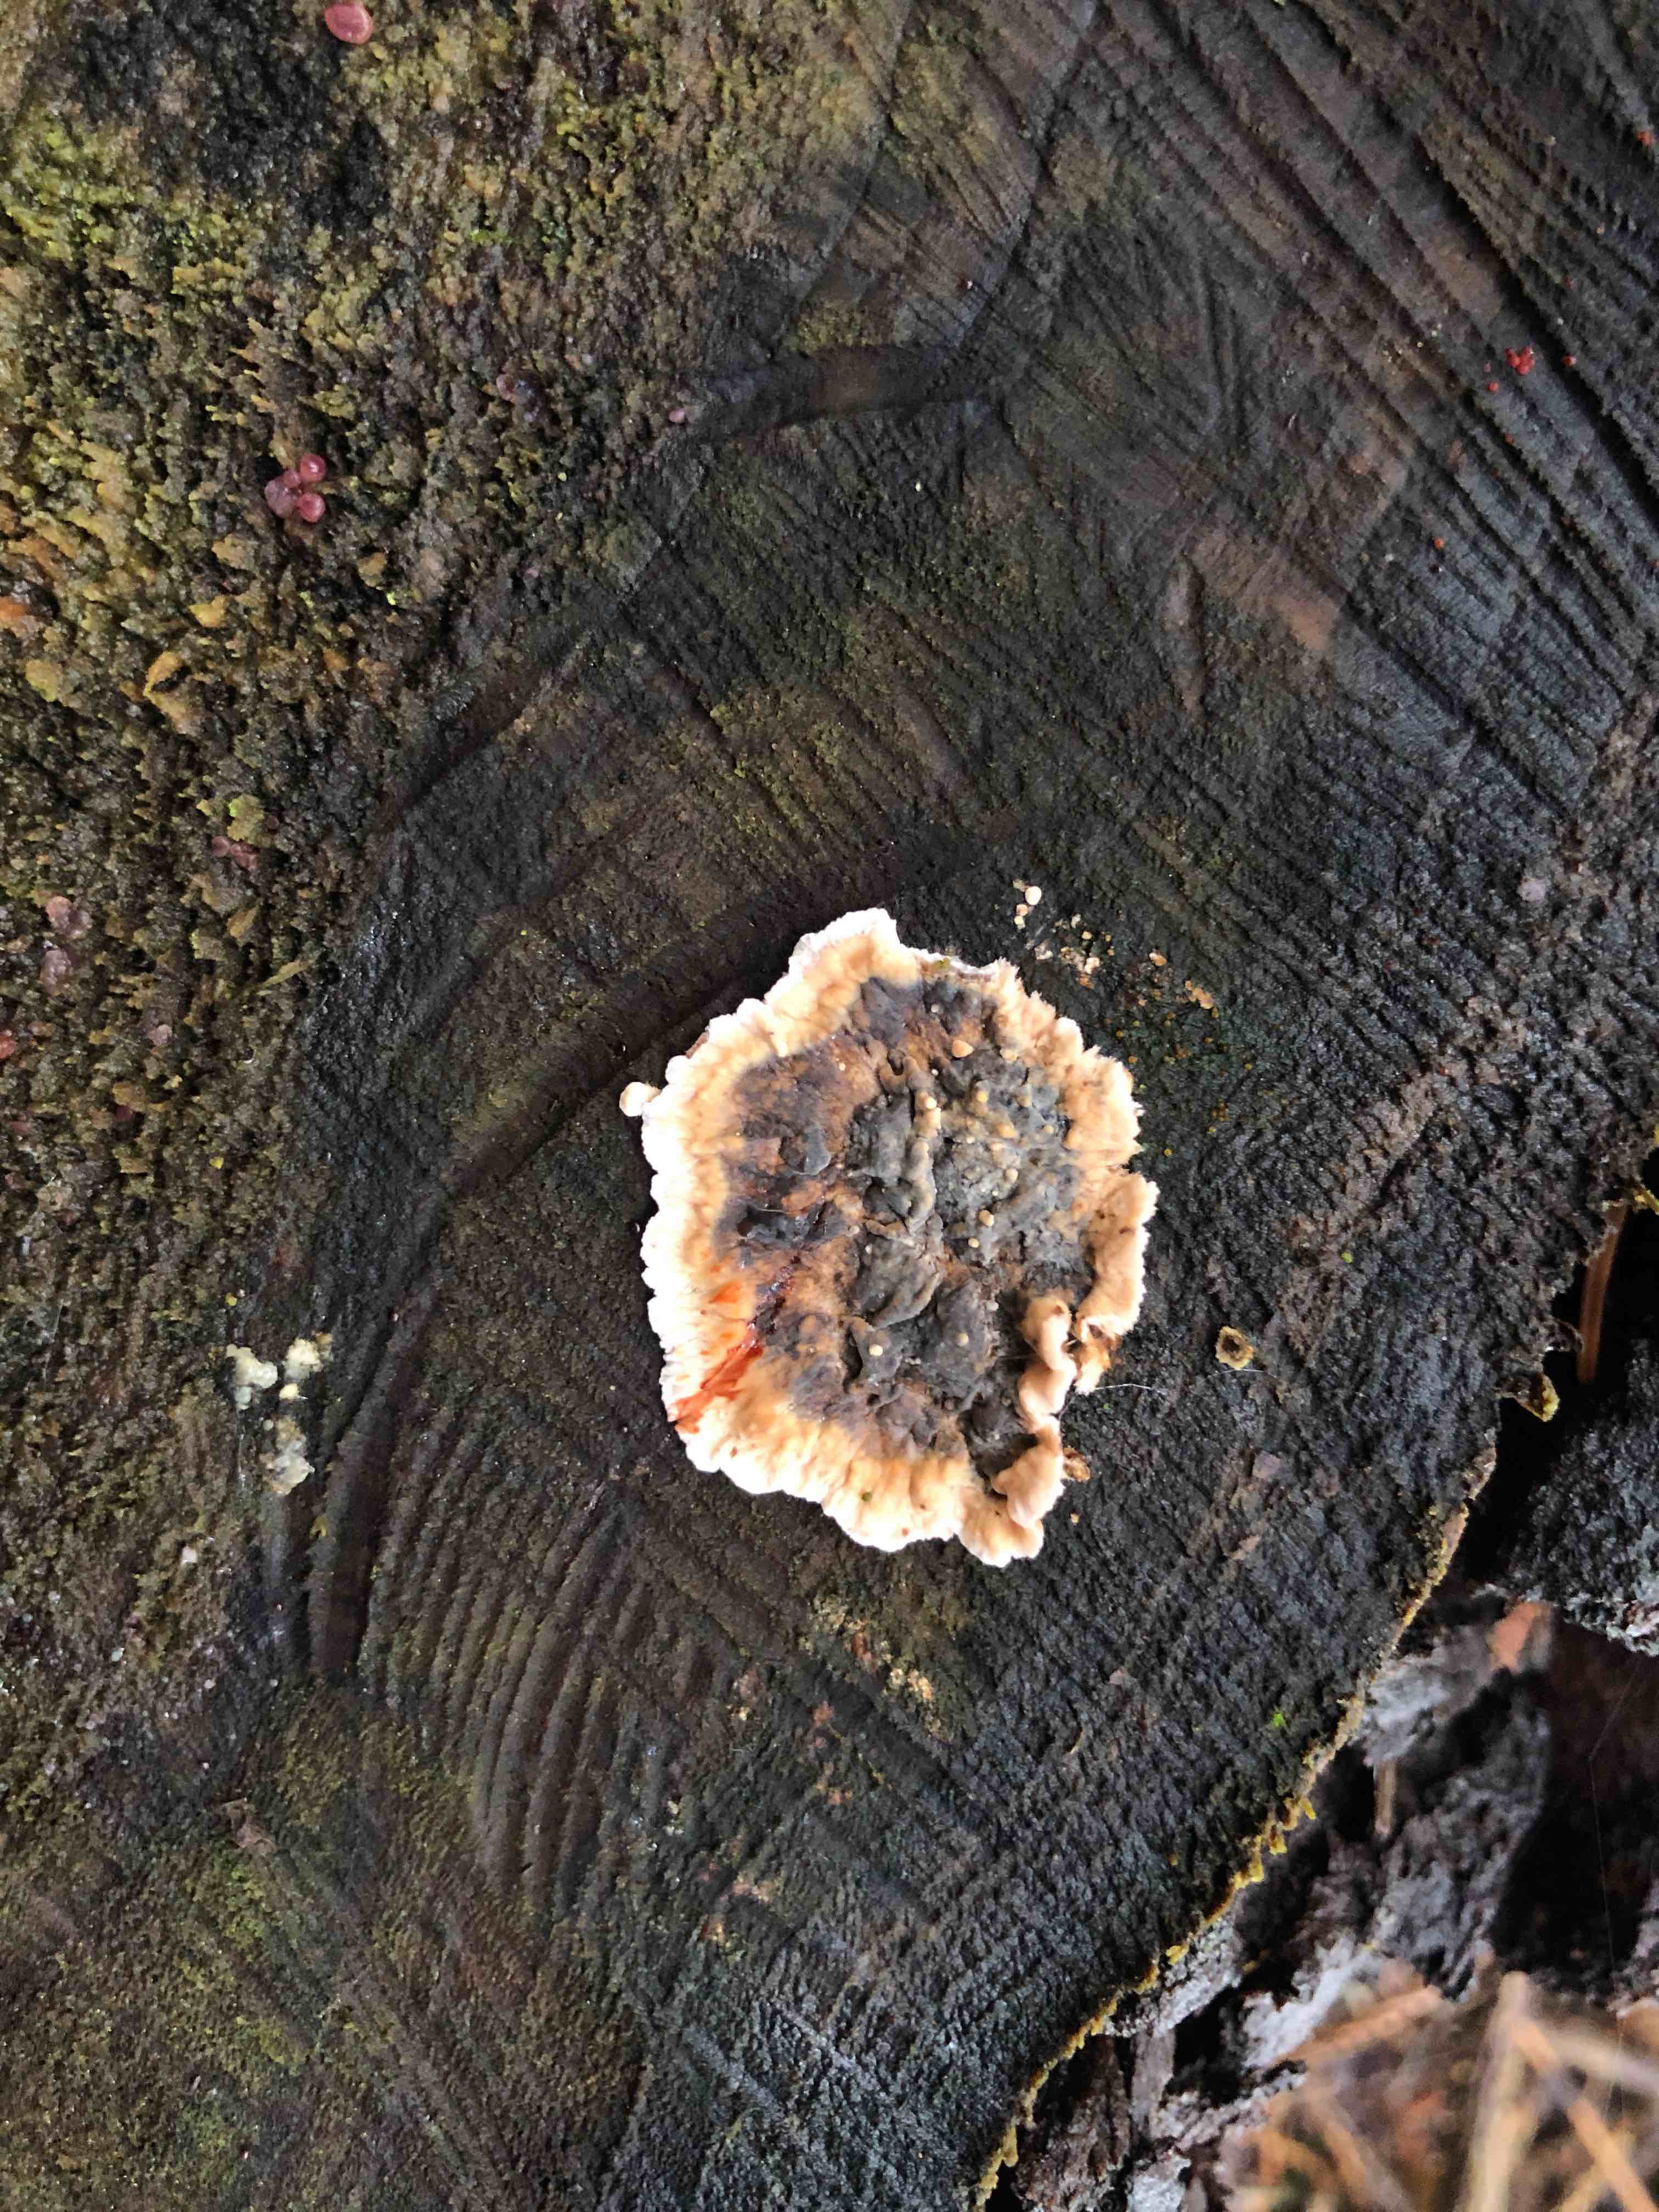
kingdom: Fungi
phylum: Basidiomycota
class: Agaricomycetes
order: Russulales
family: Stereaceae
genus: Stereum
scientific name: Stereum sanguinolentum
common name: blødende lædersvamp
